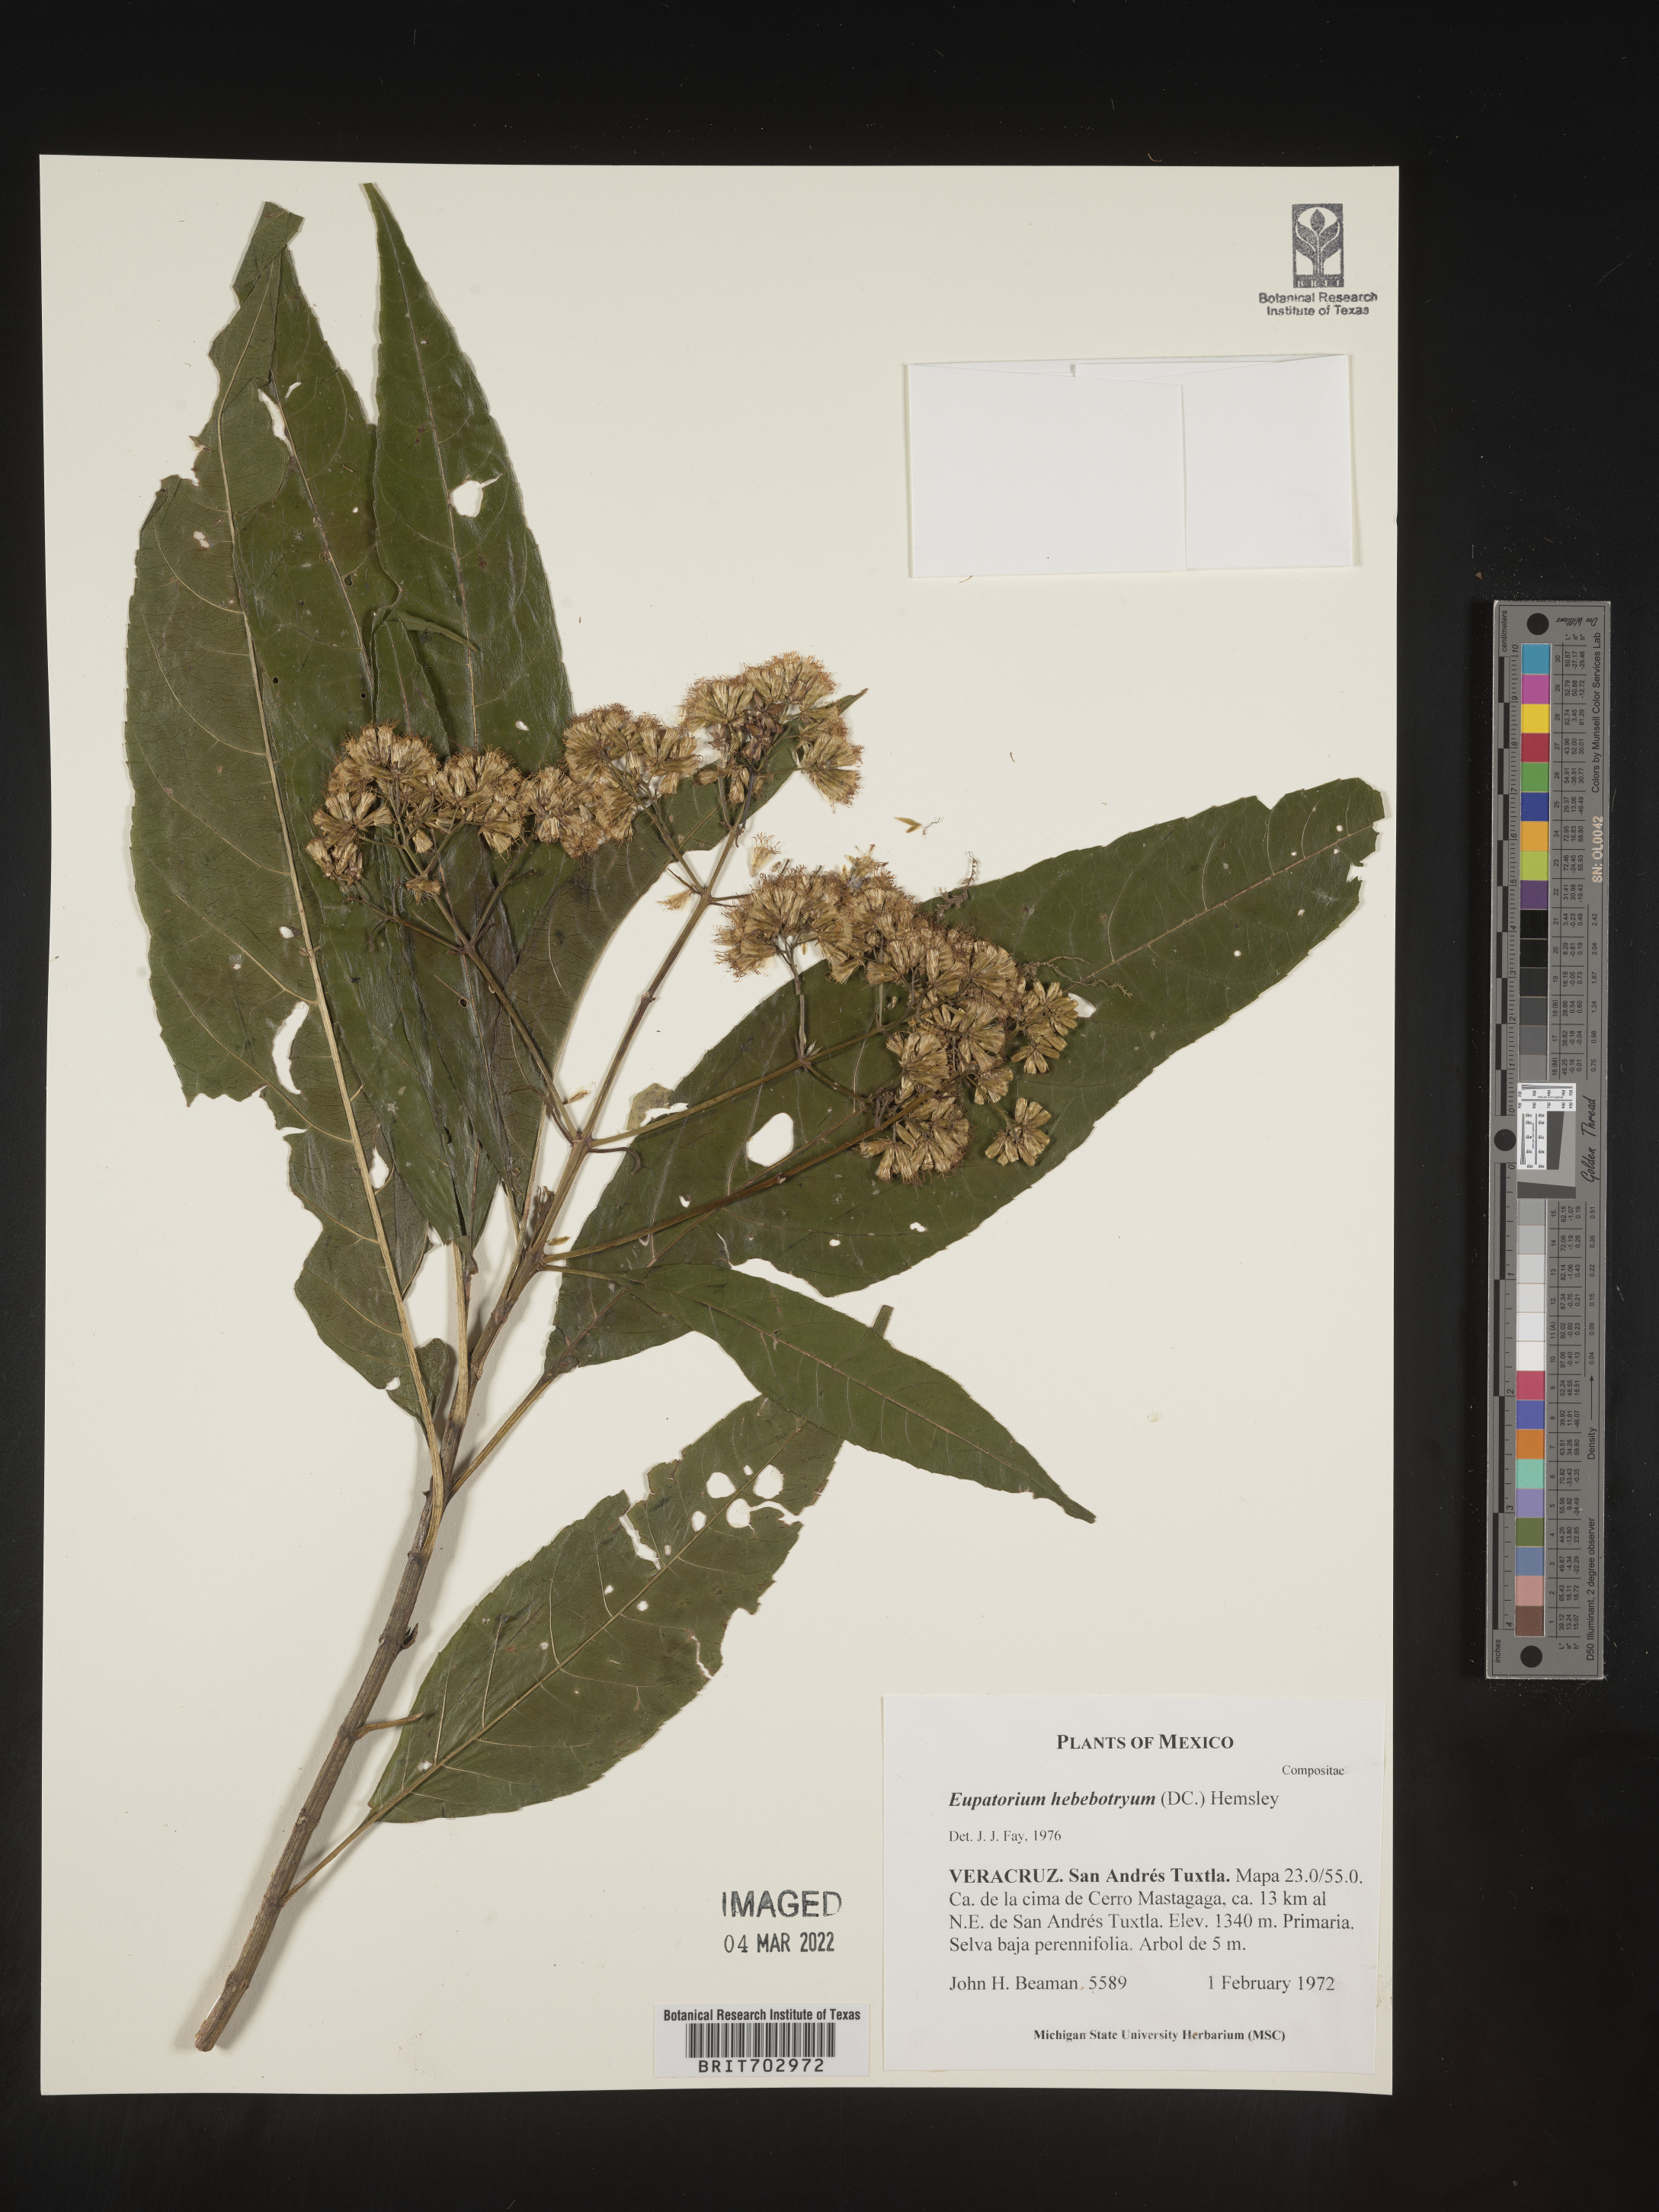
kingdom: Plantae
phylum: Tracheophyta
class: Magnoliopsida
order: Asterales
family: Asteraceae
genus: Eupatorium
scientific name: Eupatorium
